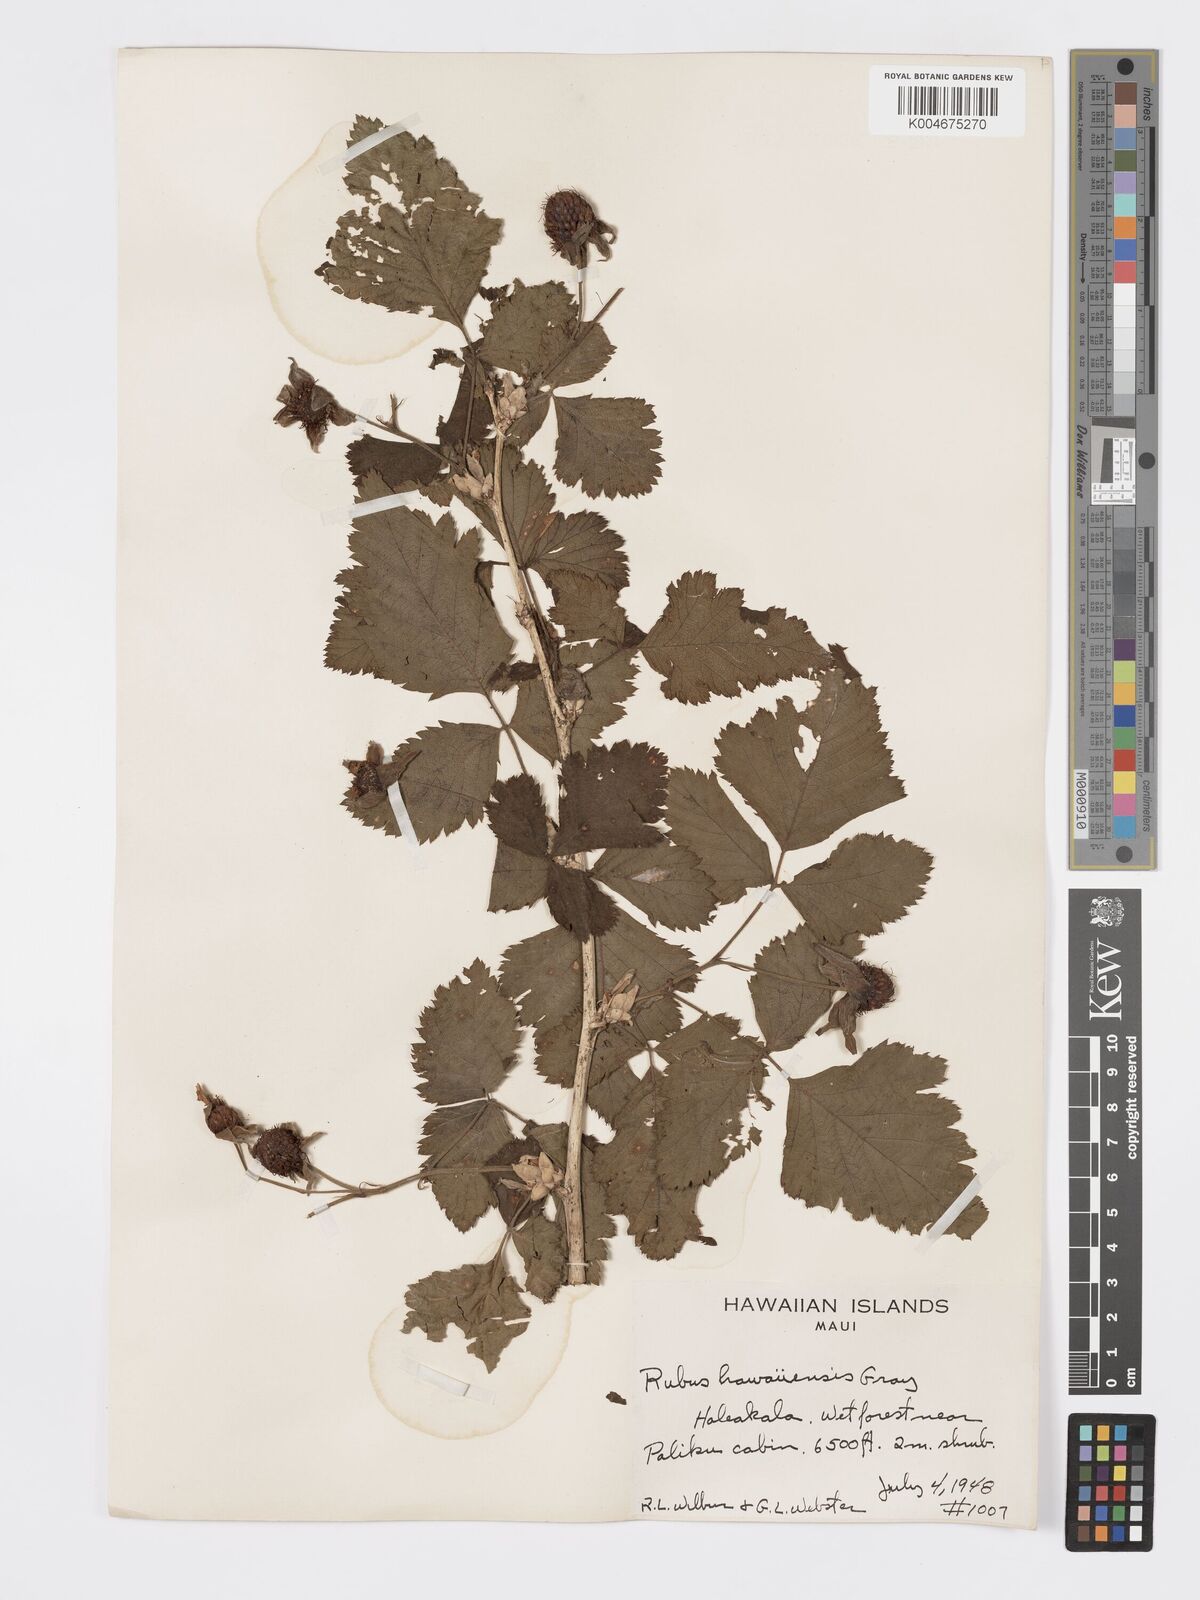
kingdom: Plantae
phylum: Tracheophyta
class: Magnoliopsida
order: Rosales
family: Rosaceae
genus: Rubus
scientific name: Rubus hawaiensis
